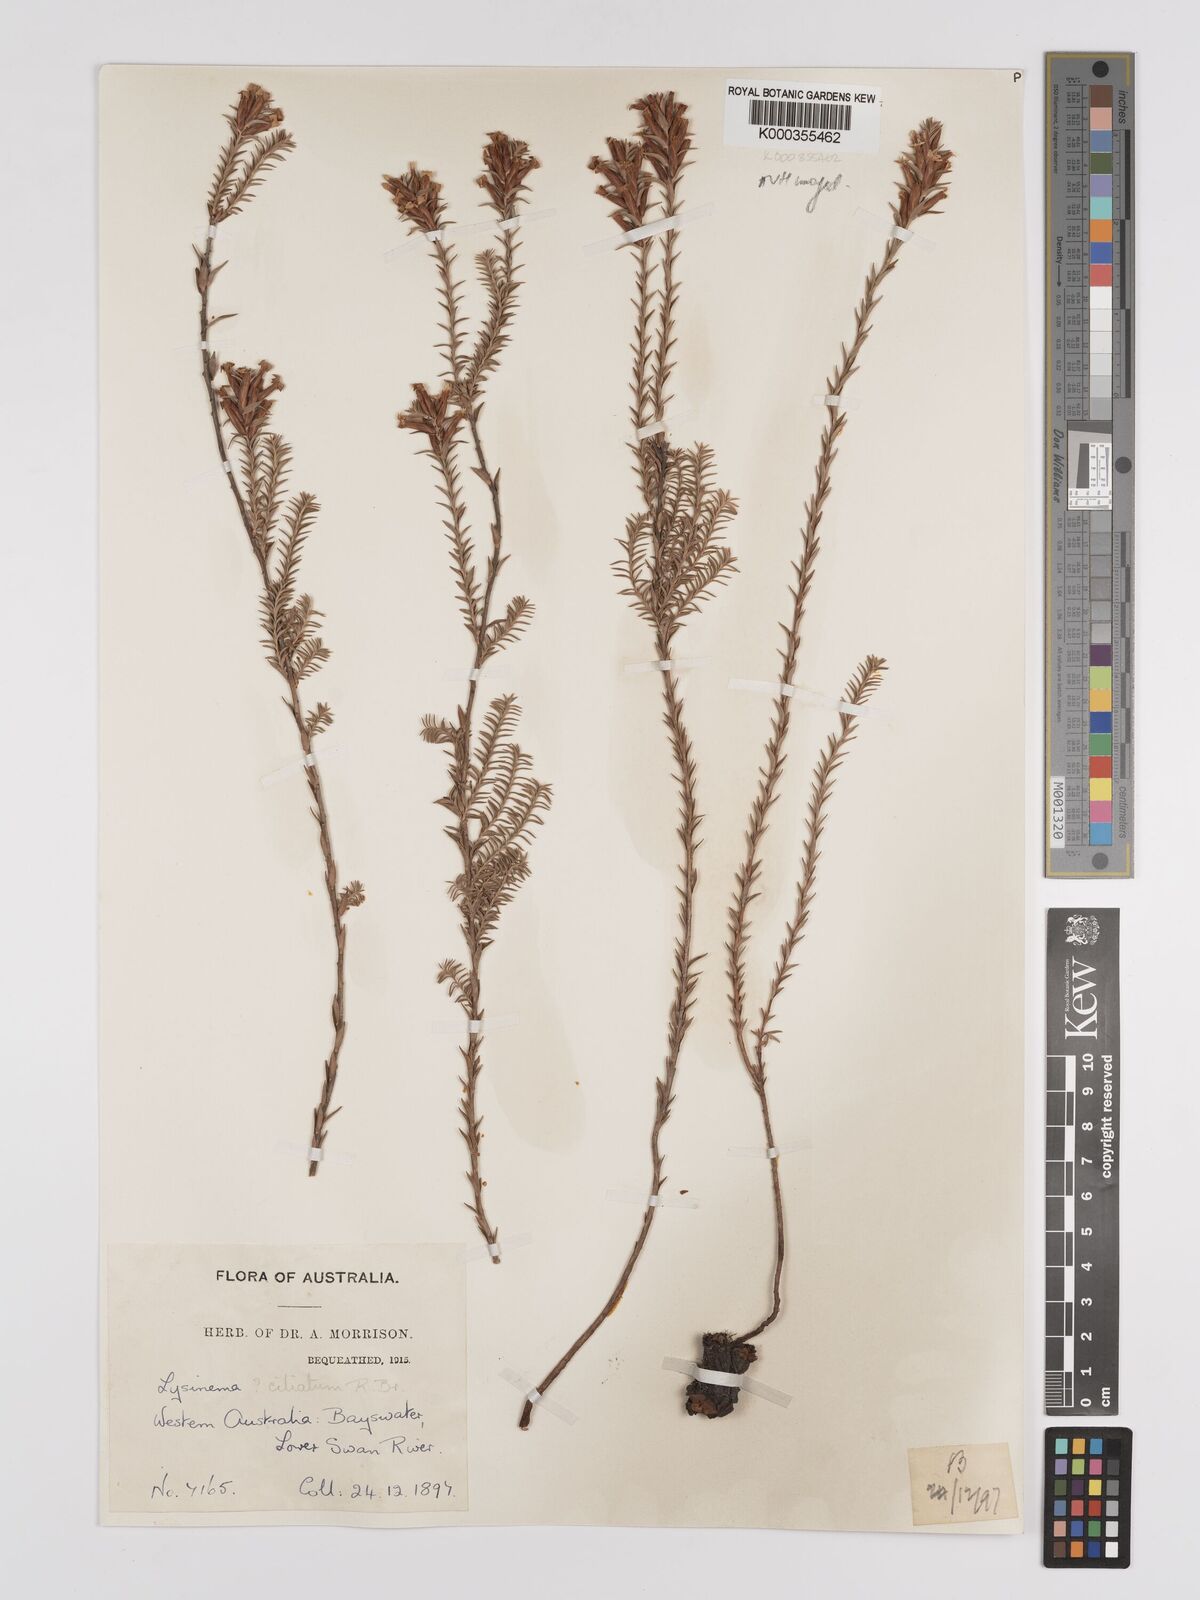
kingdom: Plantae
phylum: Tracheophyta
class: Magnoliopsida
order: Ericales
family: Ericaceae
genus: Lysinema
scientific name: Lysinema ciliatum
